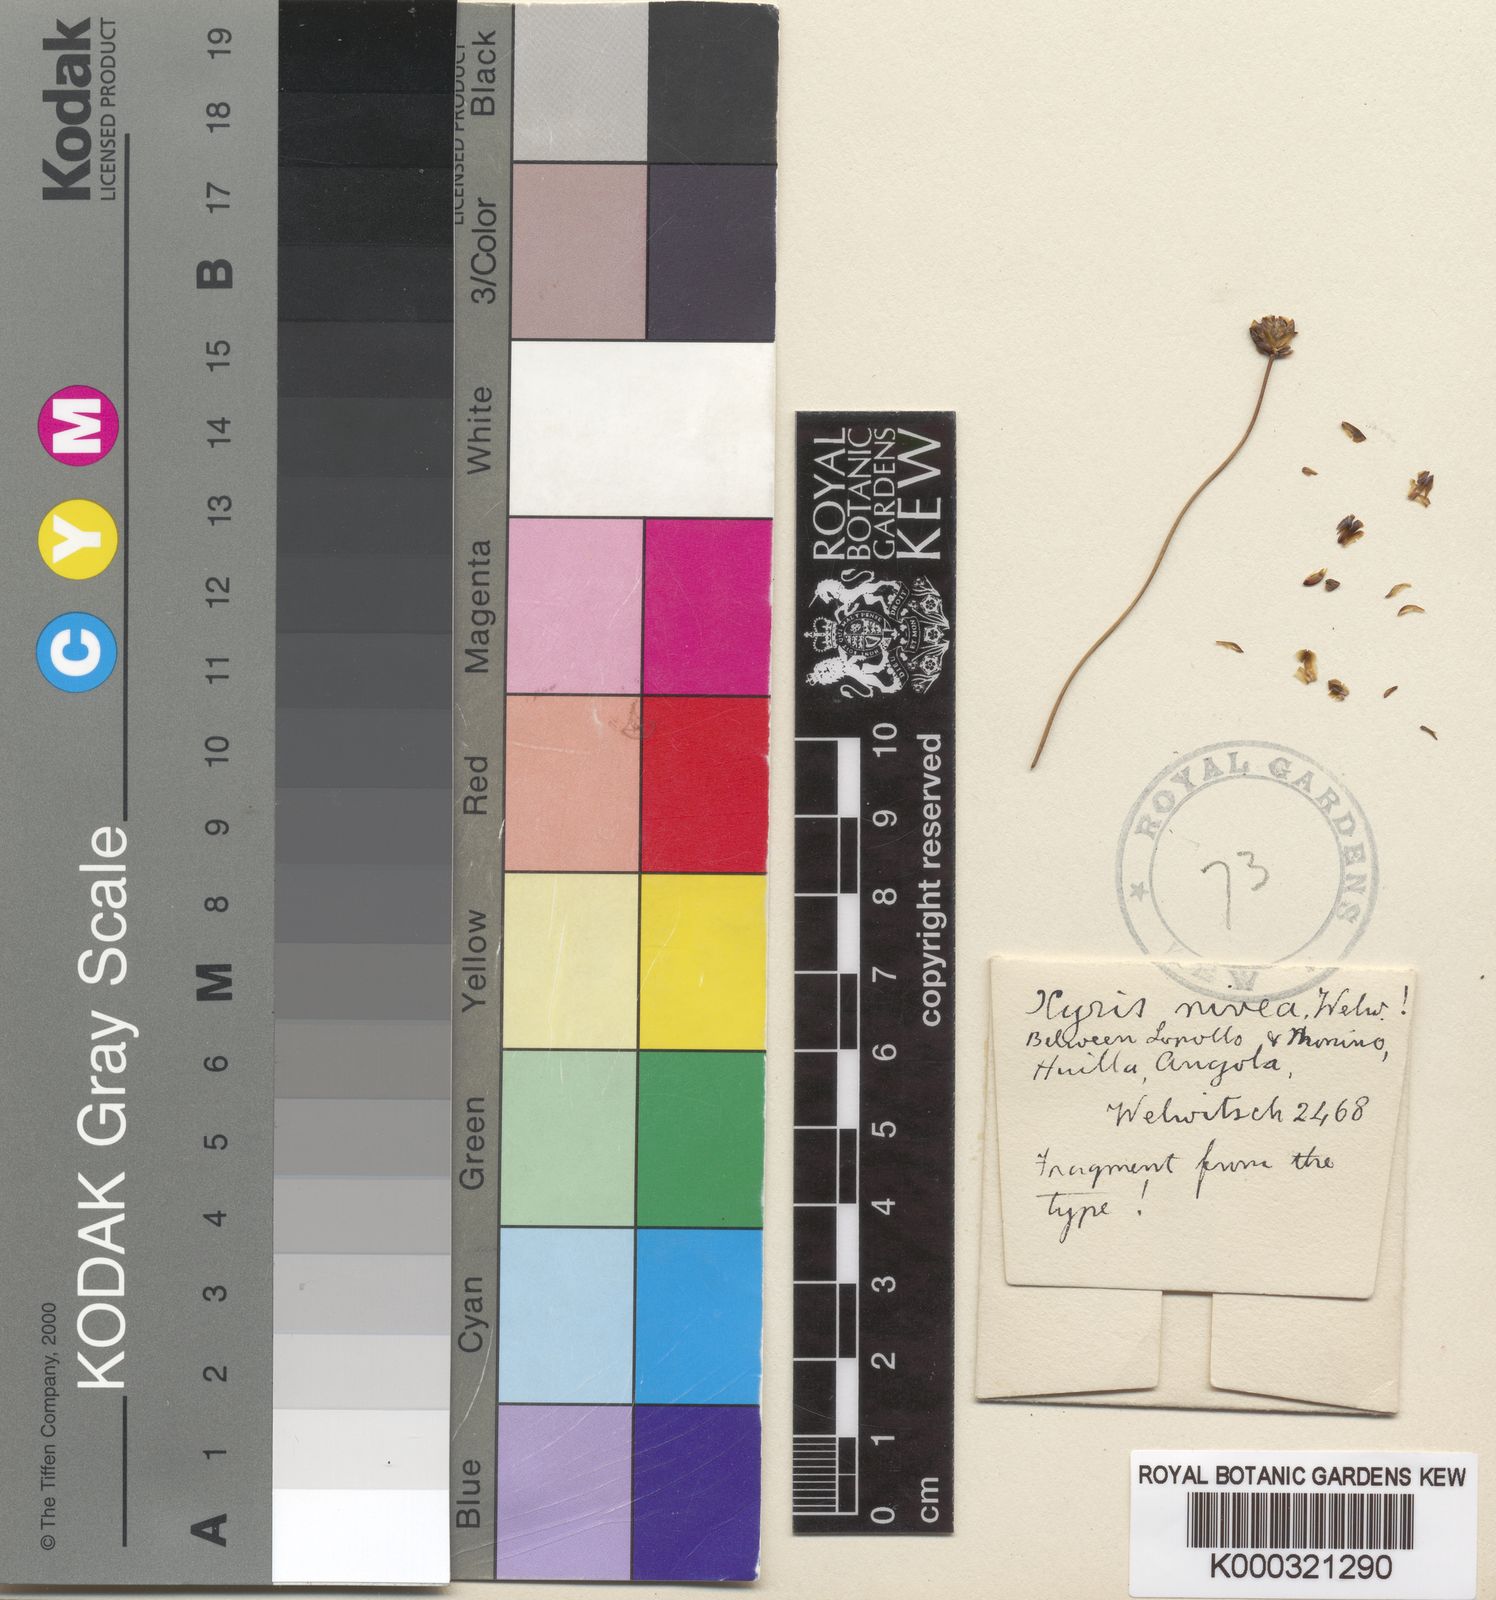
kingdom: Plantae
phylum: Tracheophyta
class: Liliopsida
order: Poales
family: Xyridaceae
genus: Xyris
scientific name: Xyris nivea
